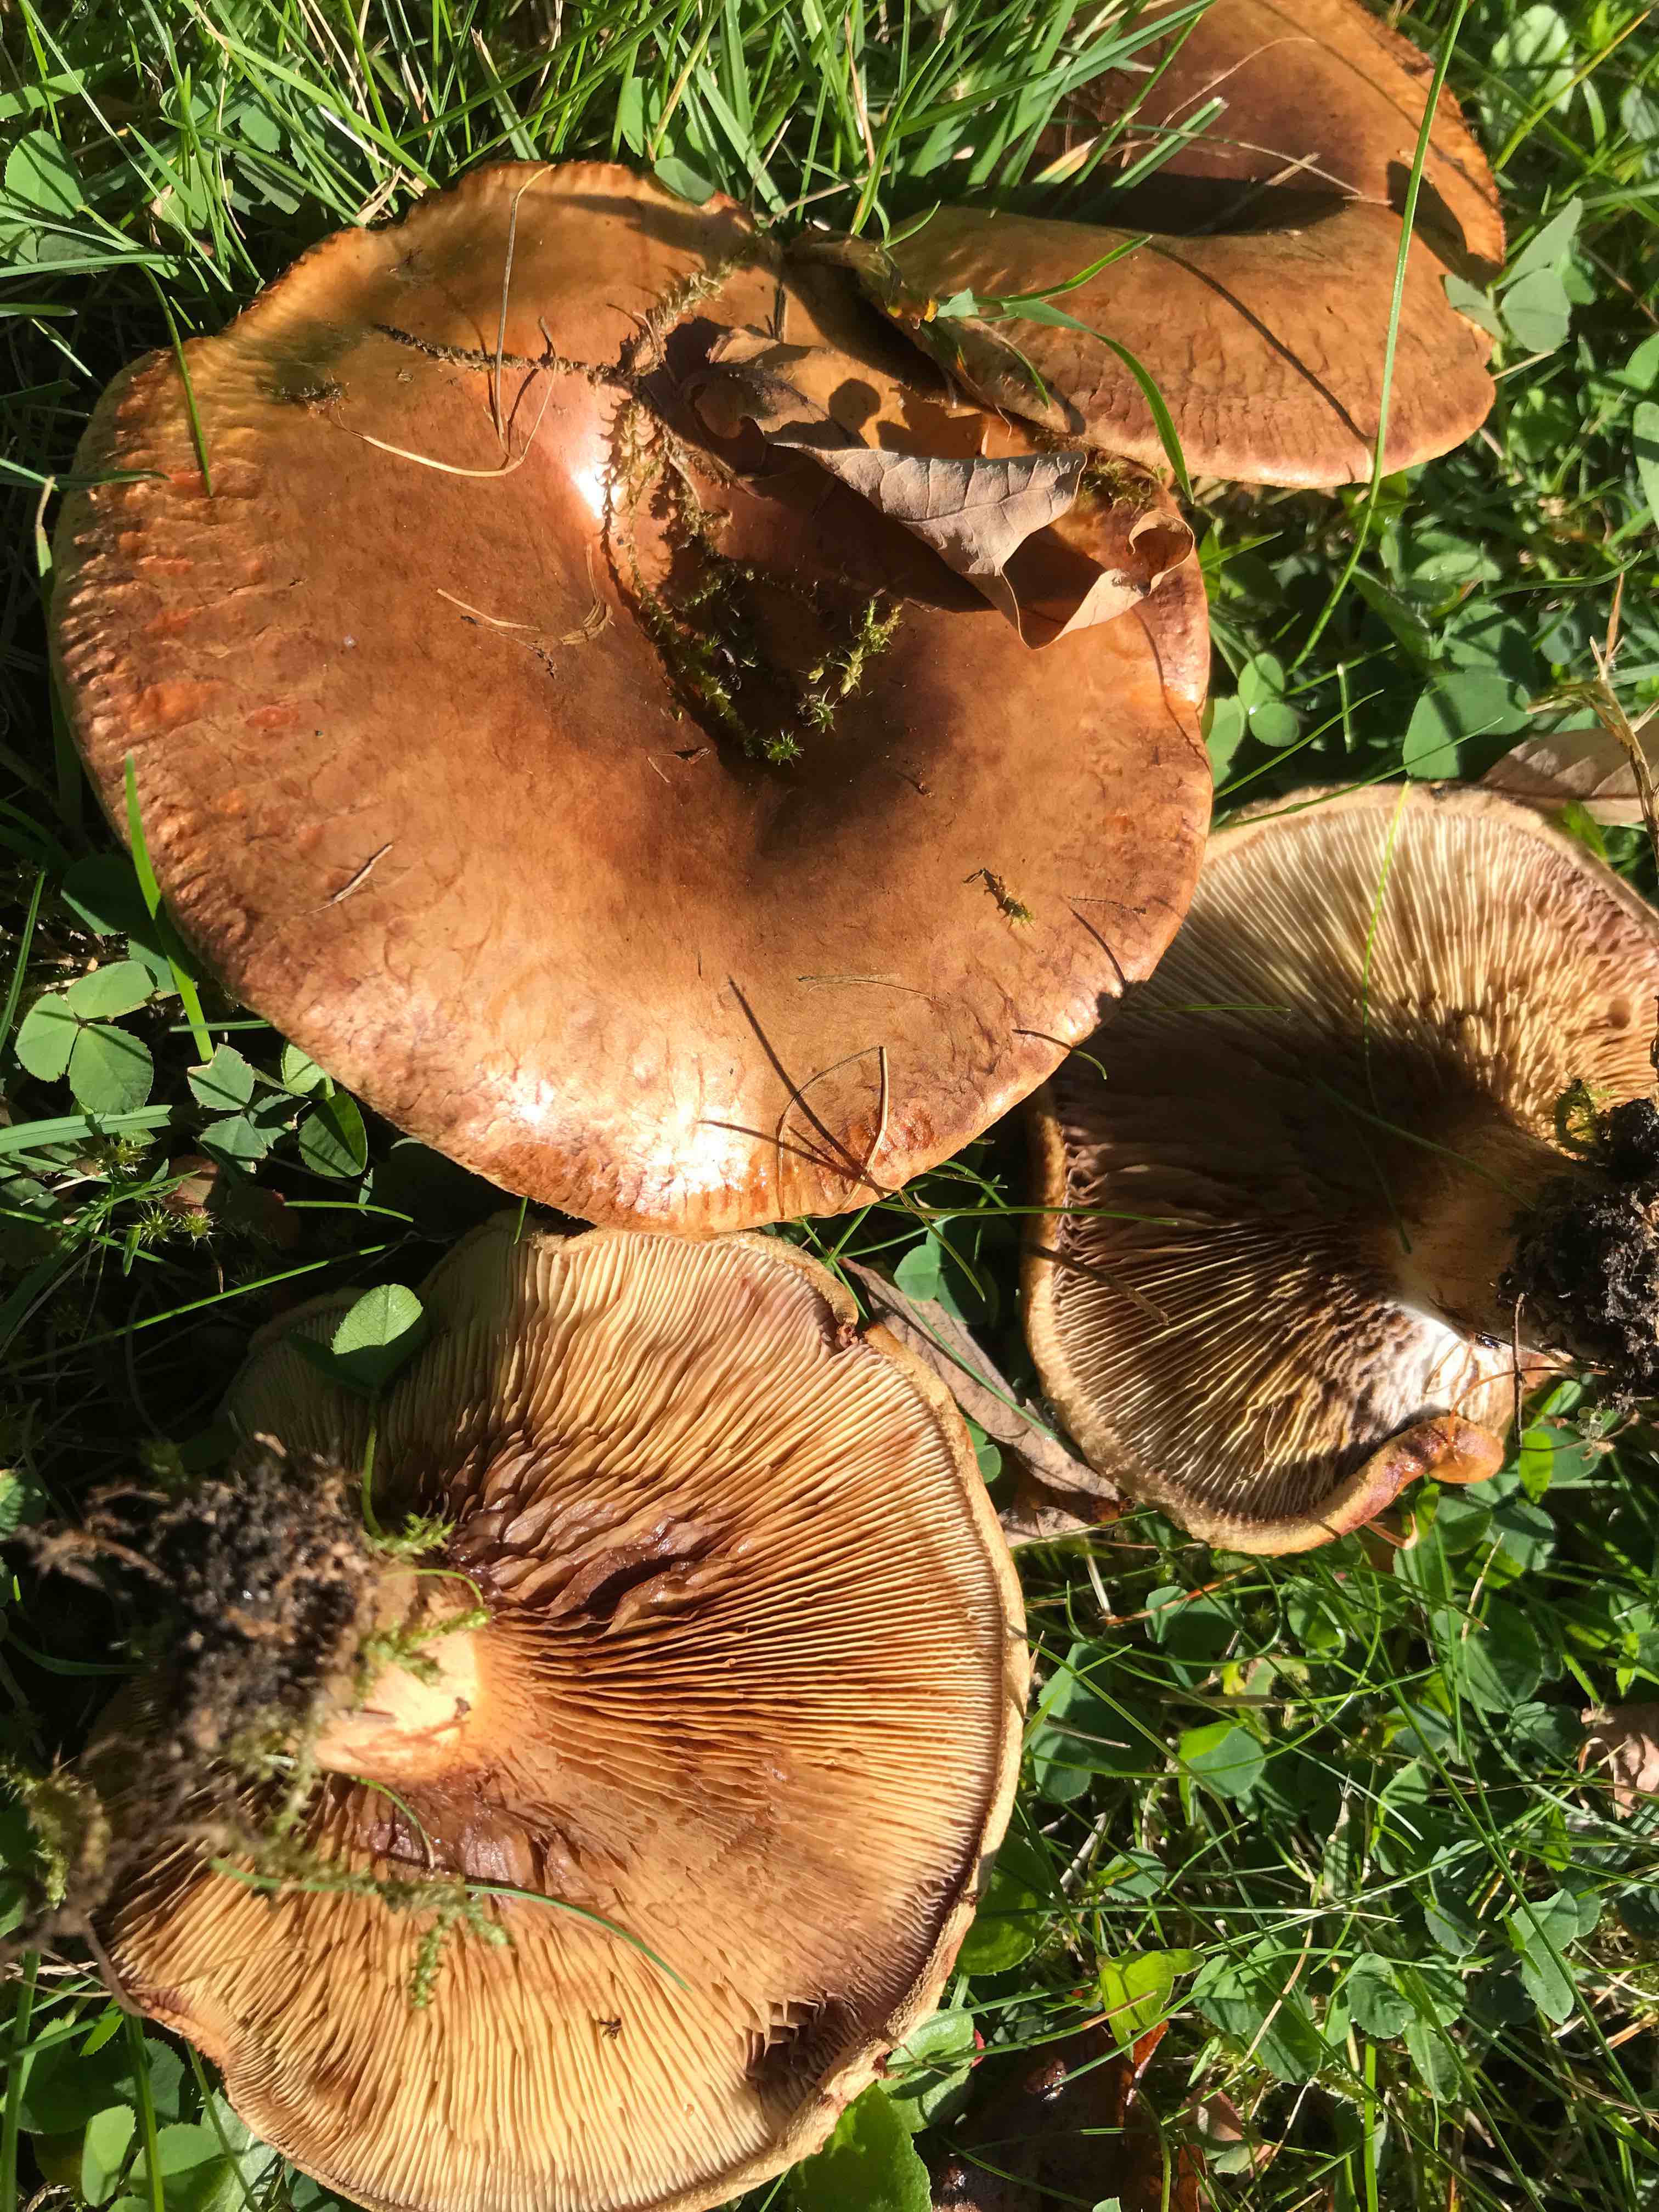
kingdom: Fungi
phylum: Basidiomycota
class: Agaricomycetes
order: Boletales
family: Paxillaceae
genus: Paxillus
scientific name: Paxillus
